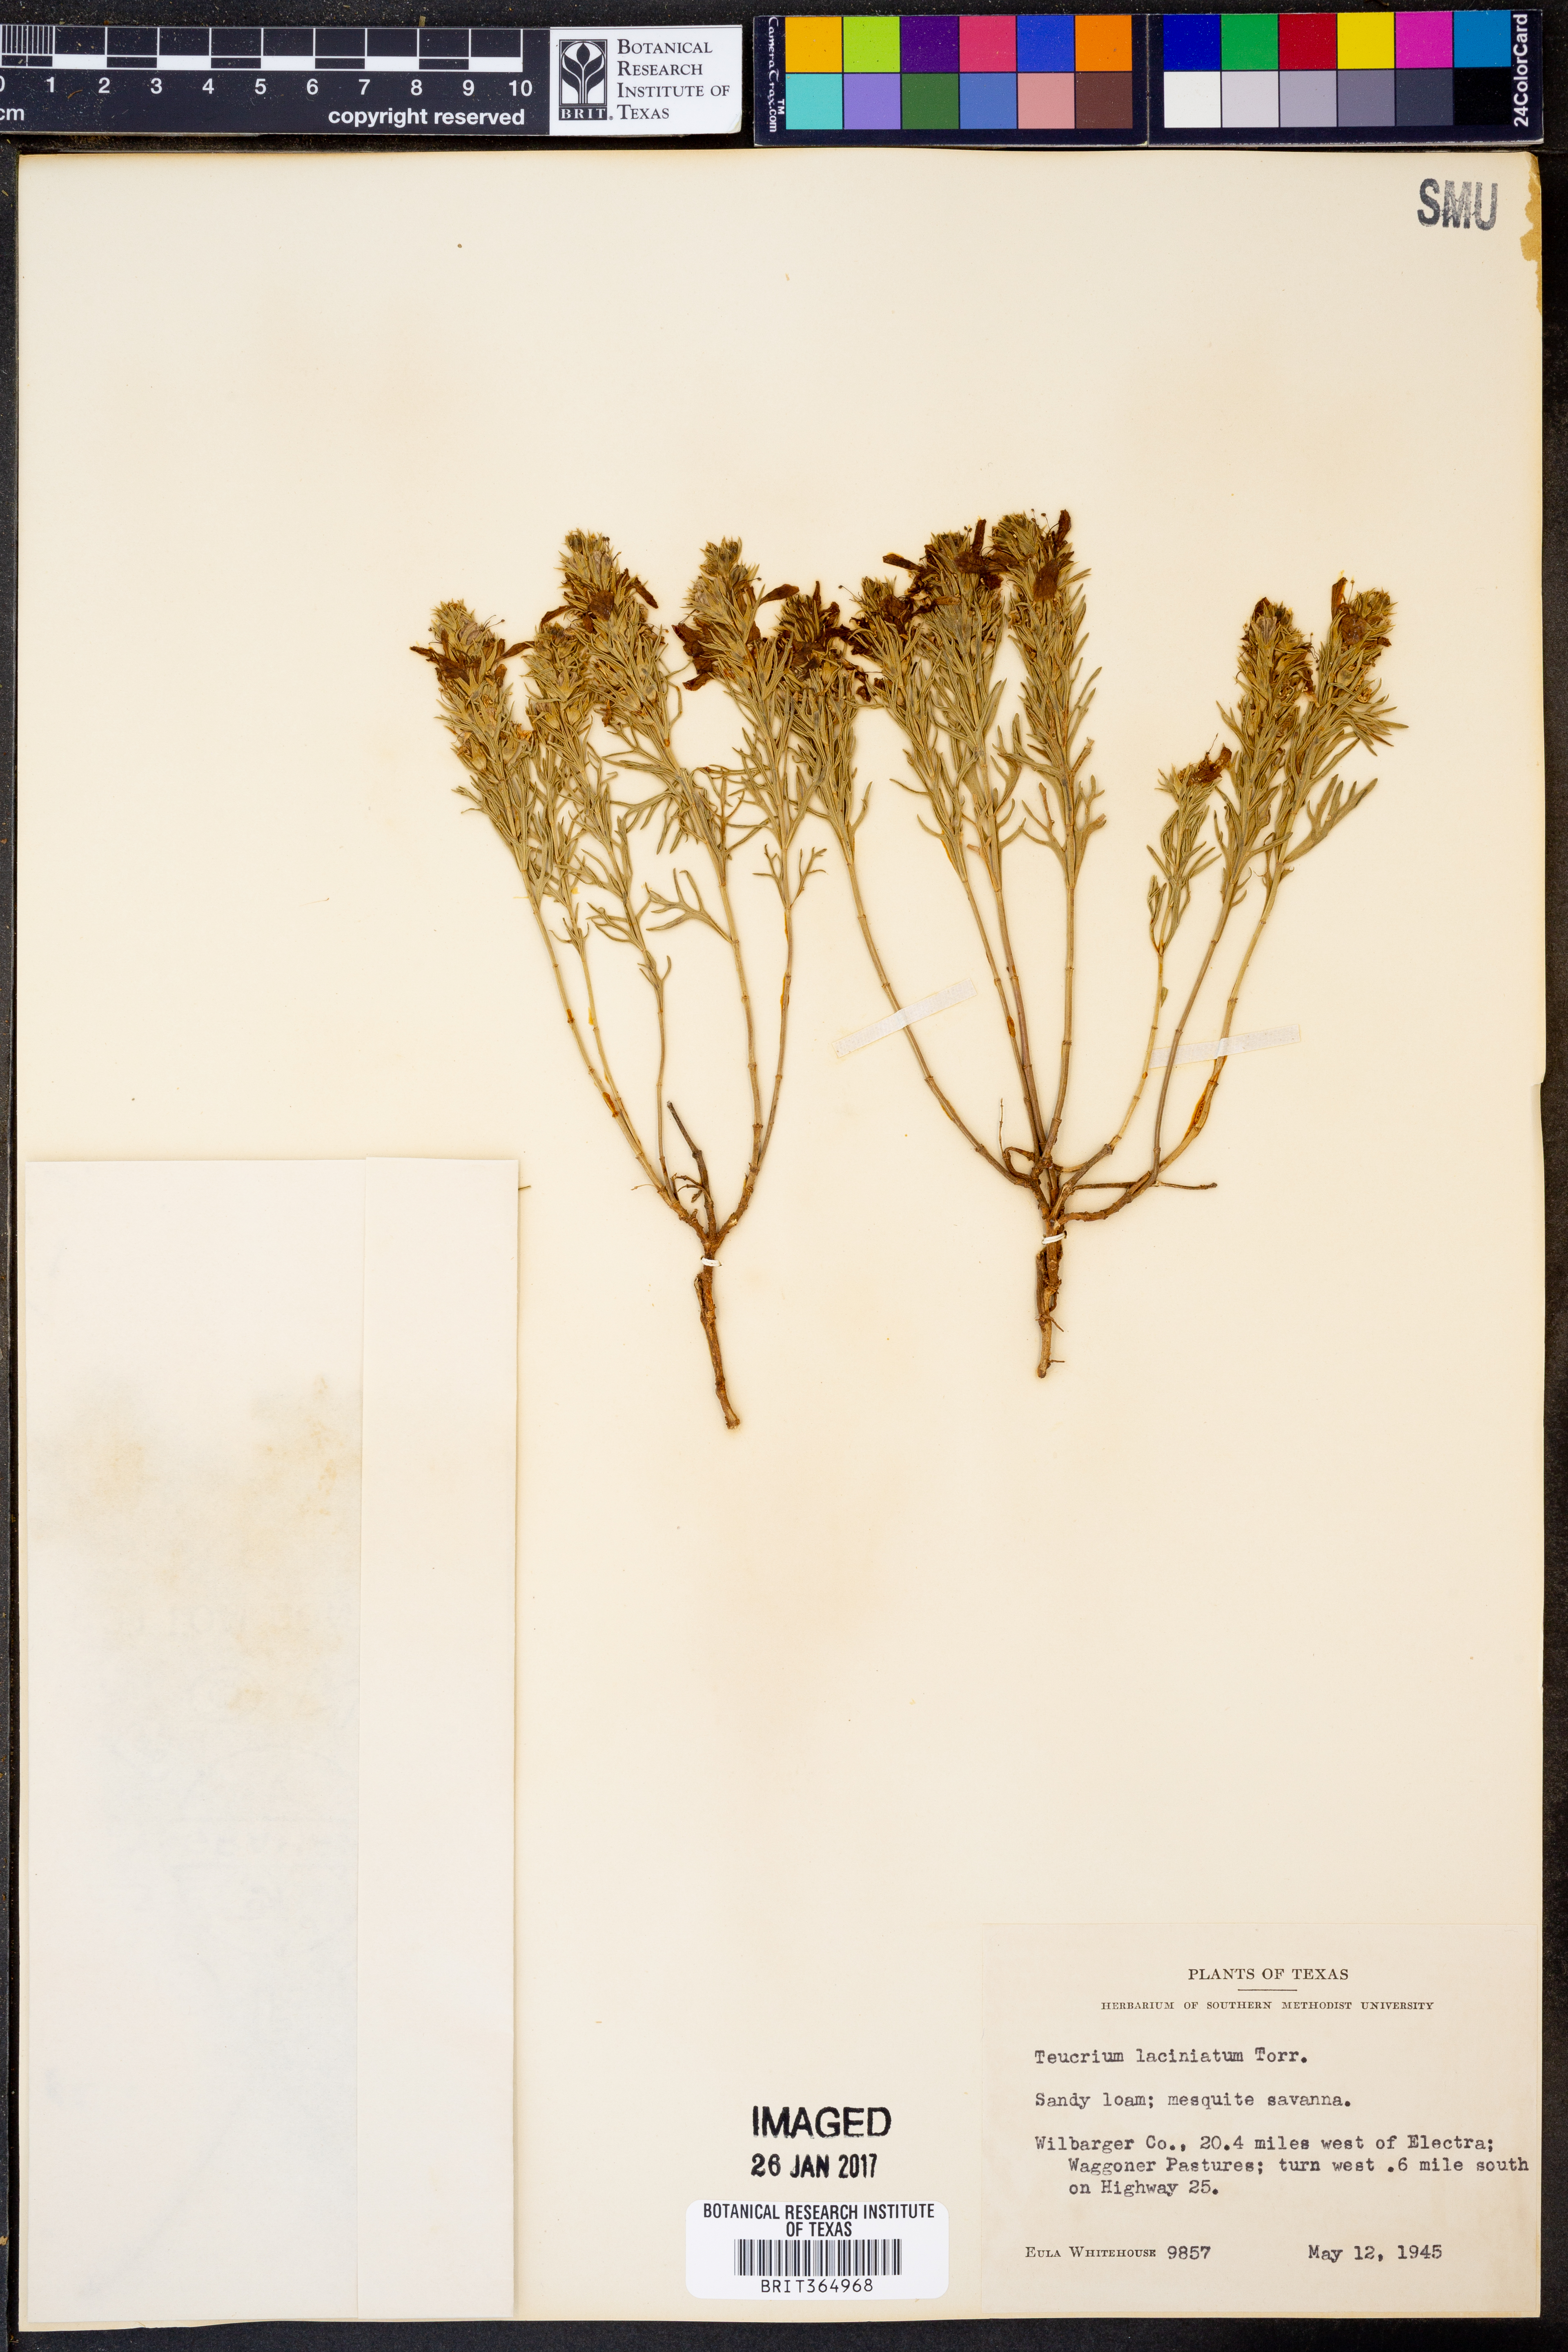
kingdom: Plantae
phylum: Tracheophyta
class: Magnoliopsida
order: Lamiales
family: Lamiaceae
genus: Teucrium
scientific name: Teucrium laciniatum
